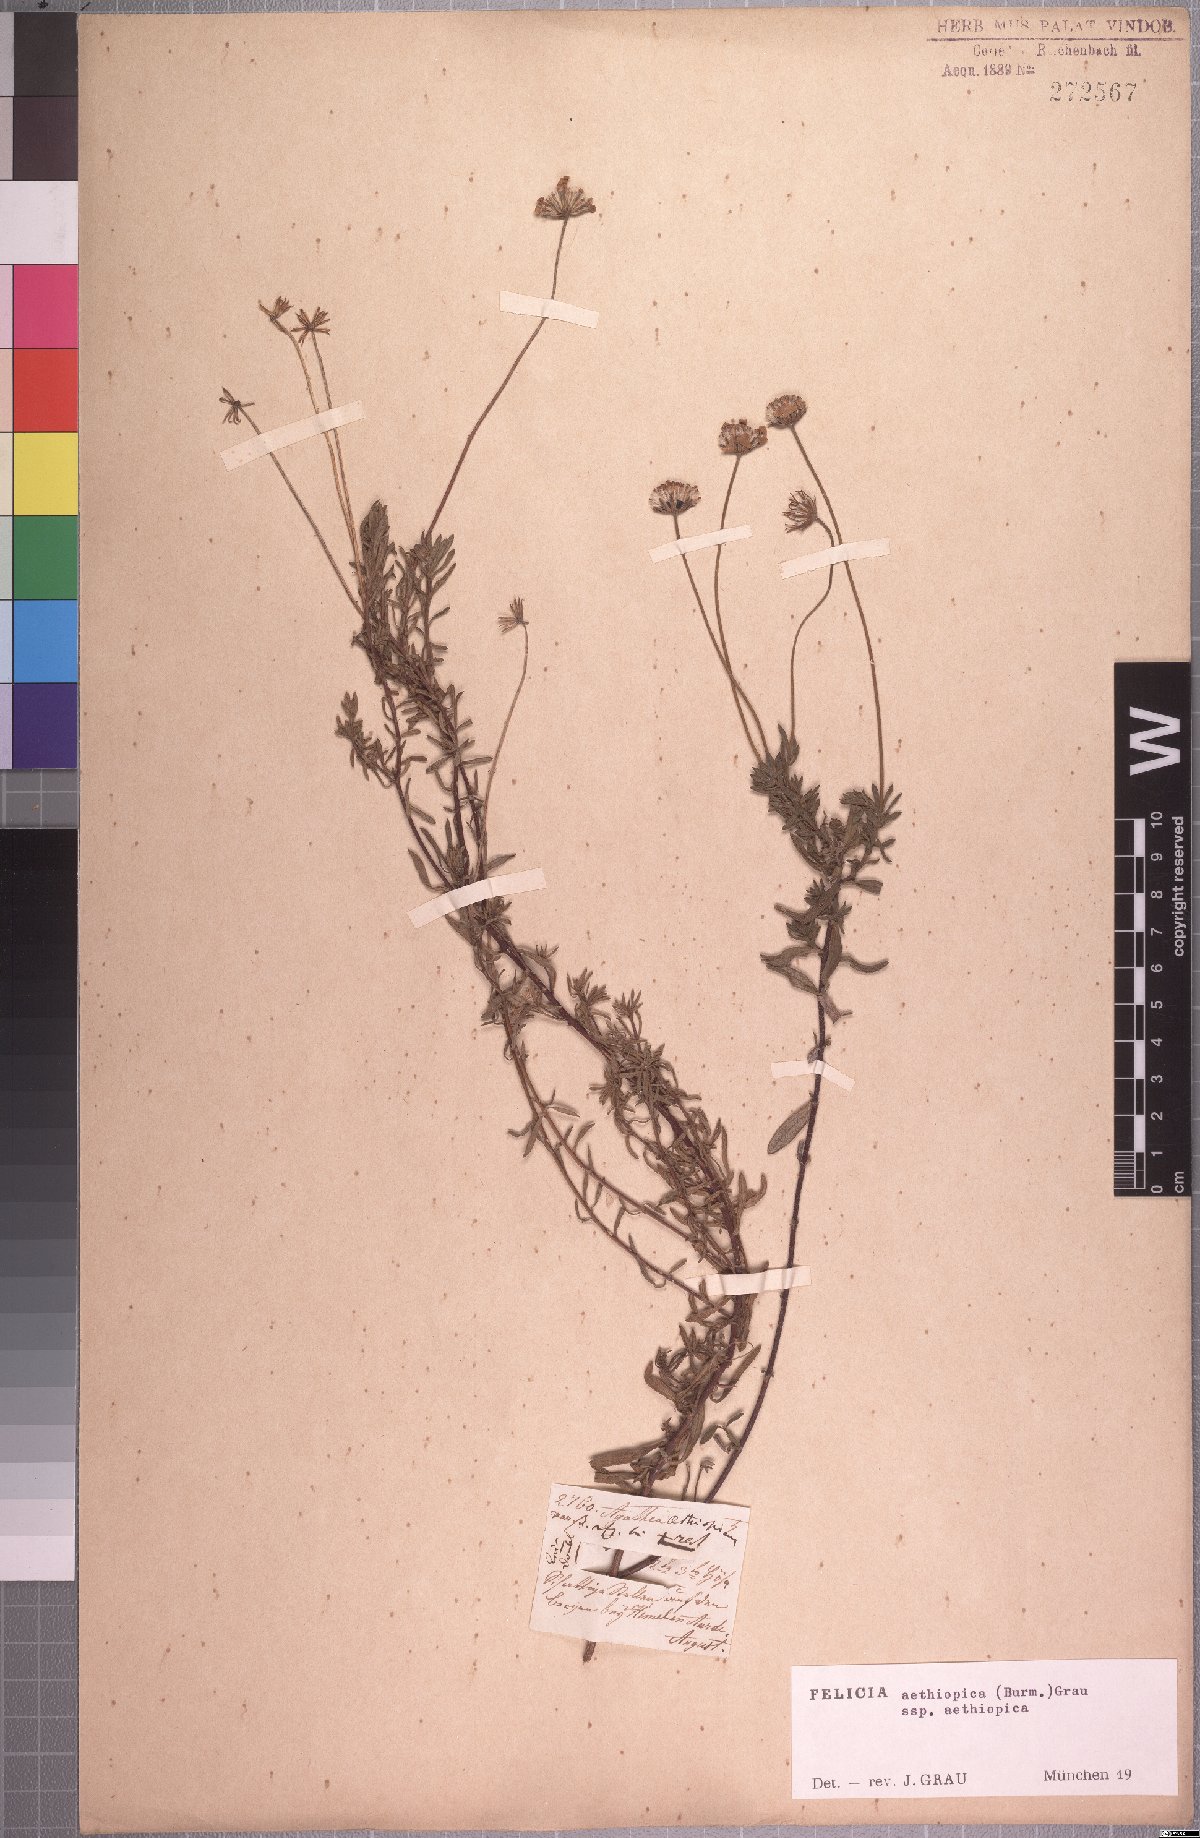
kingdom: Plantae
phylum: Tracheophyta
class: Magnoliopsida
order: Asterales
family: Asteraceae
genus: Felicia
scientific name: Felicia aethiopica
